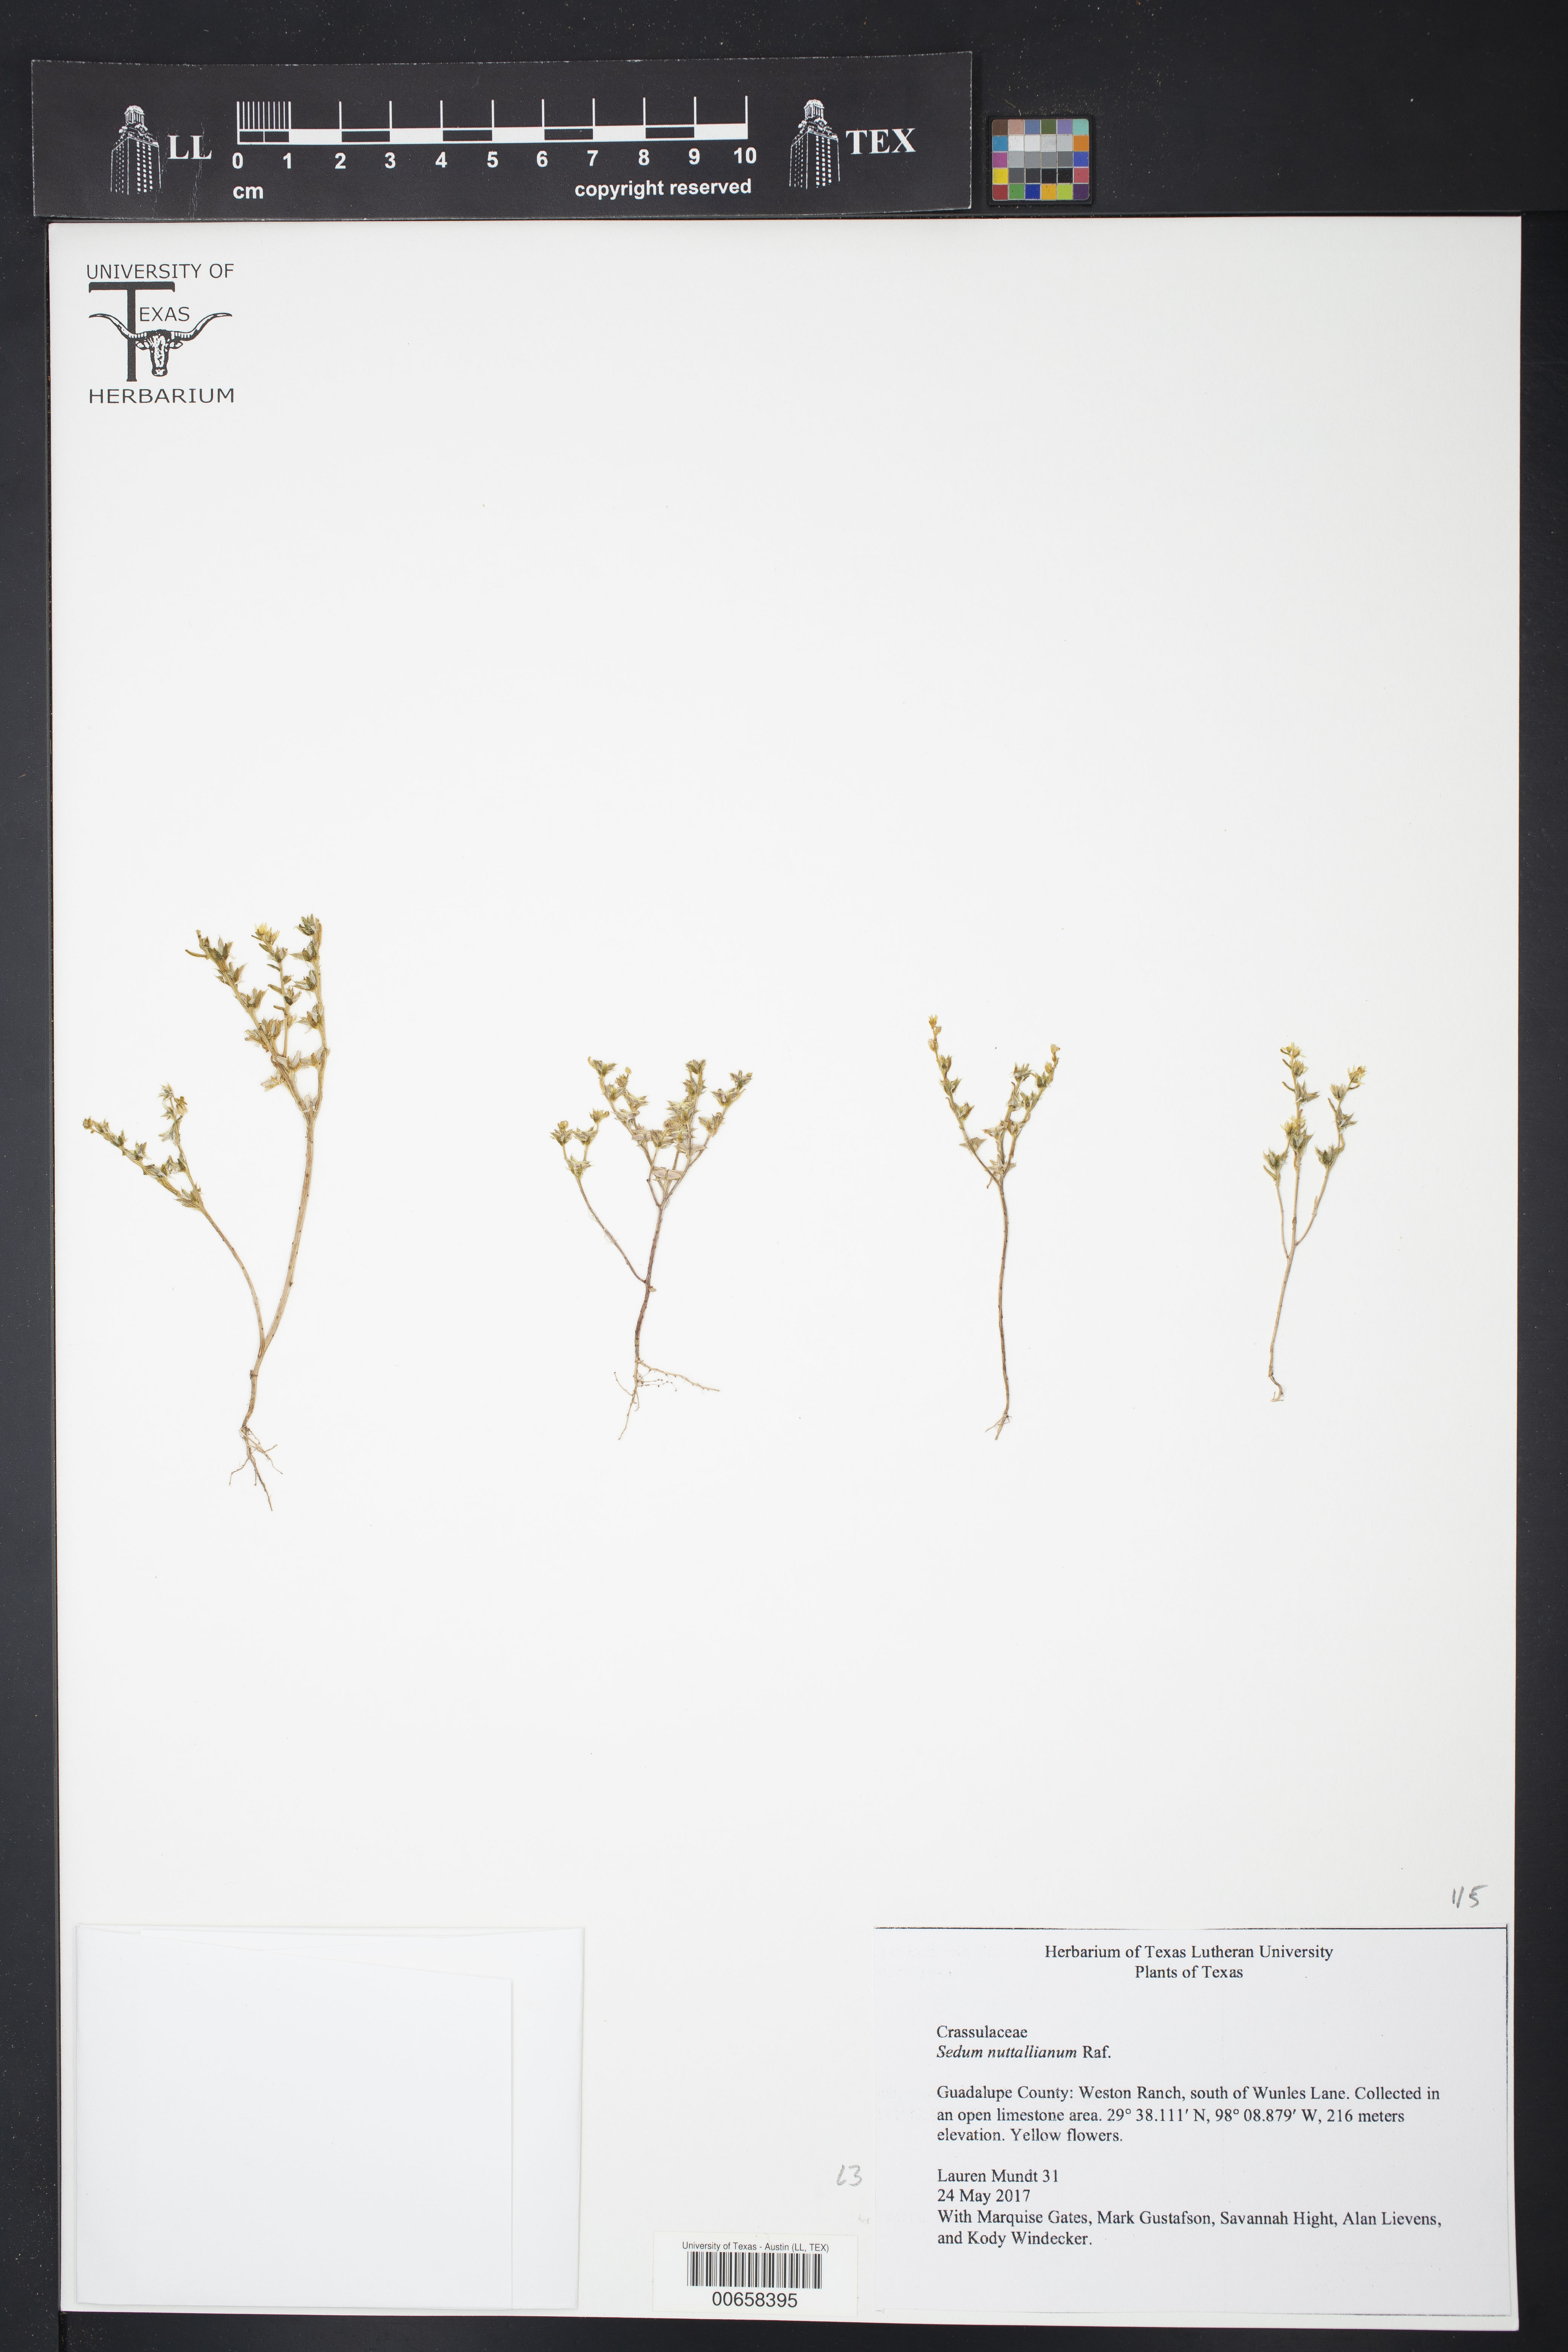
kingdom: Plantae
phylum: Tracheophyta
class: Magnoliopsida
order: Saxifragales
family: Crassulaceae
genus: Sedum
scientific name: Sedum nuttallii
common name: Yellow stonecrop
